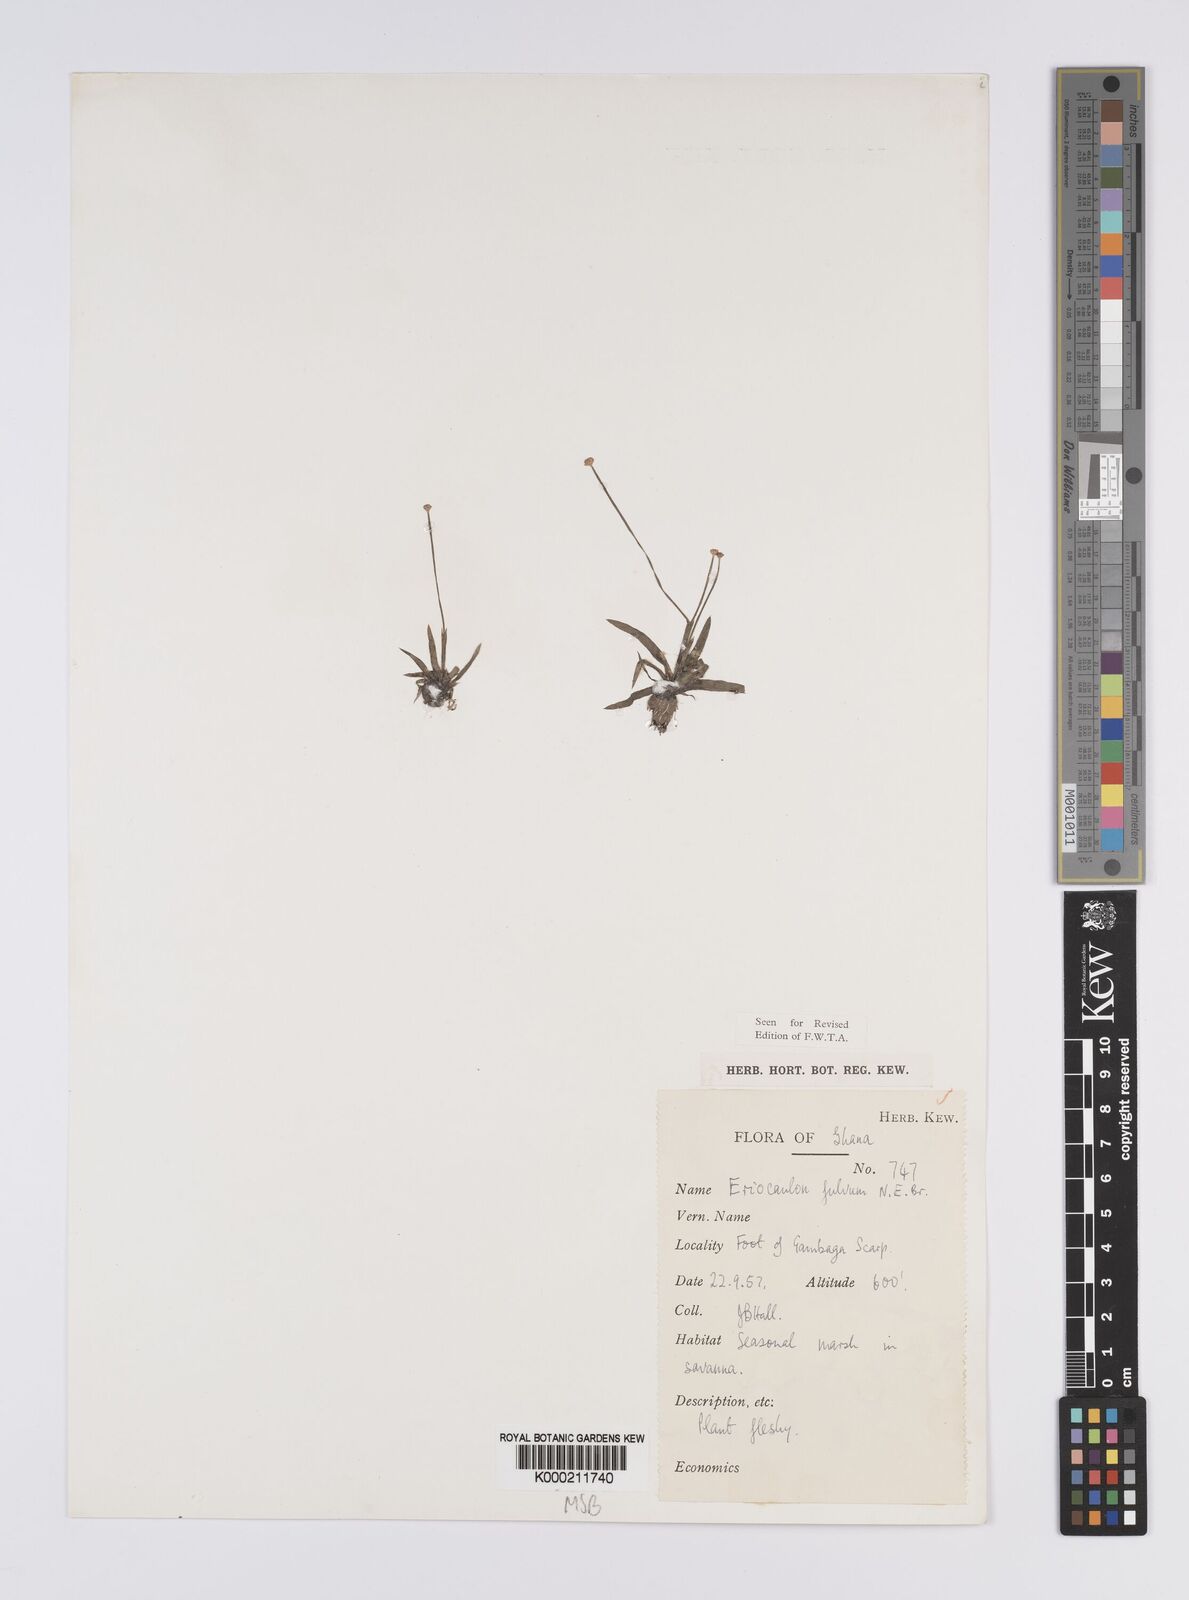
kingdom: Plantae
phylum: Tracheophyta
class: Liliopsida
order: Poales
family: Eriocaulaceae
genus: Eriocaulon
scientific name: Eriocaulon fulvum
